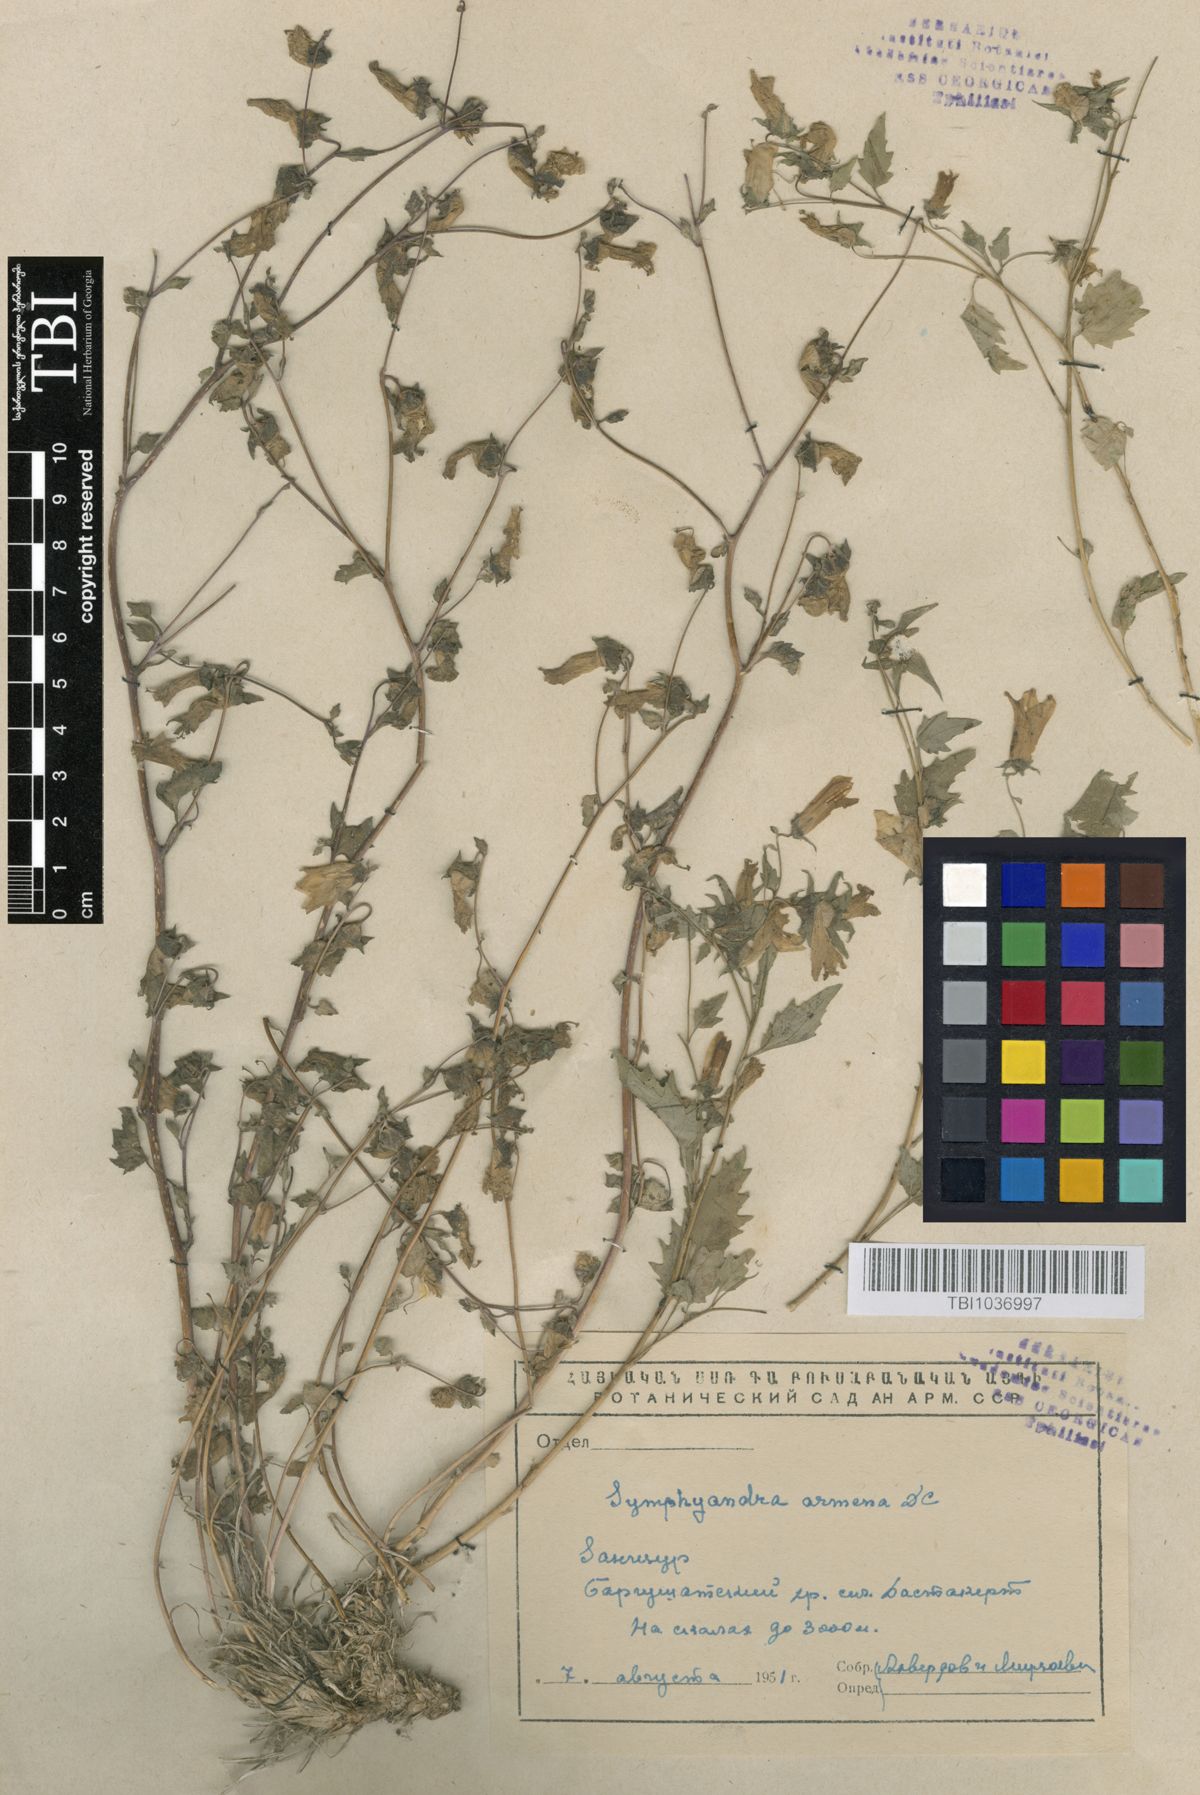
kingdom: Plantae
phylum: Tracheophyta
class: Magnoliopsida
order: Asterales
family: Campanulaceae
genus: Campanula
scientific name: Campanula armena
